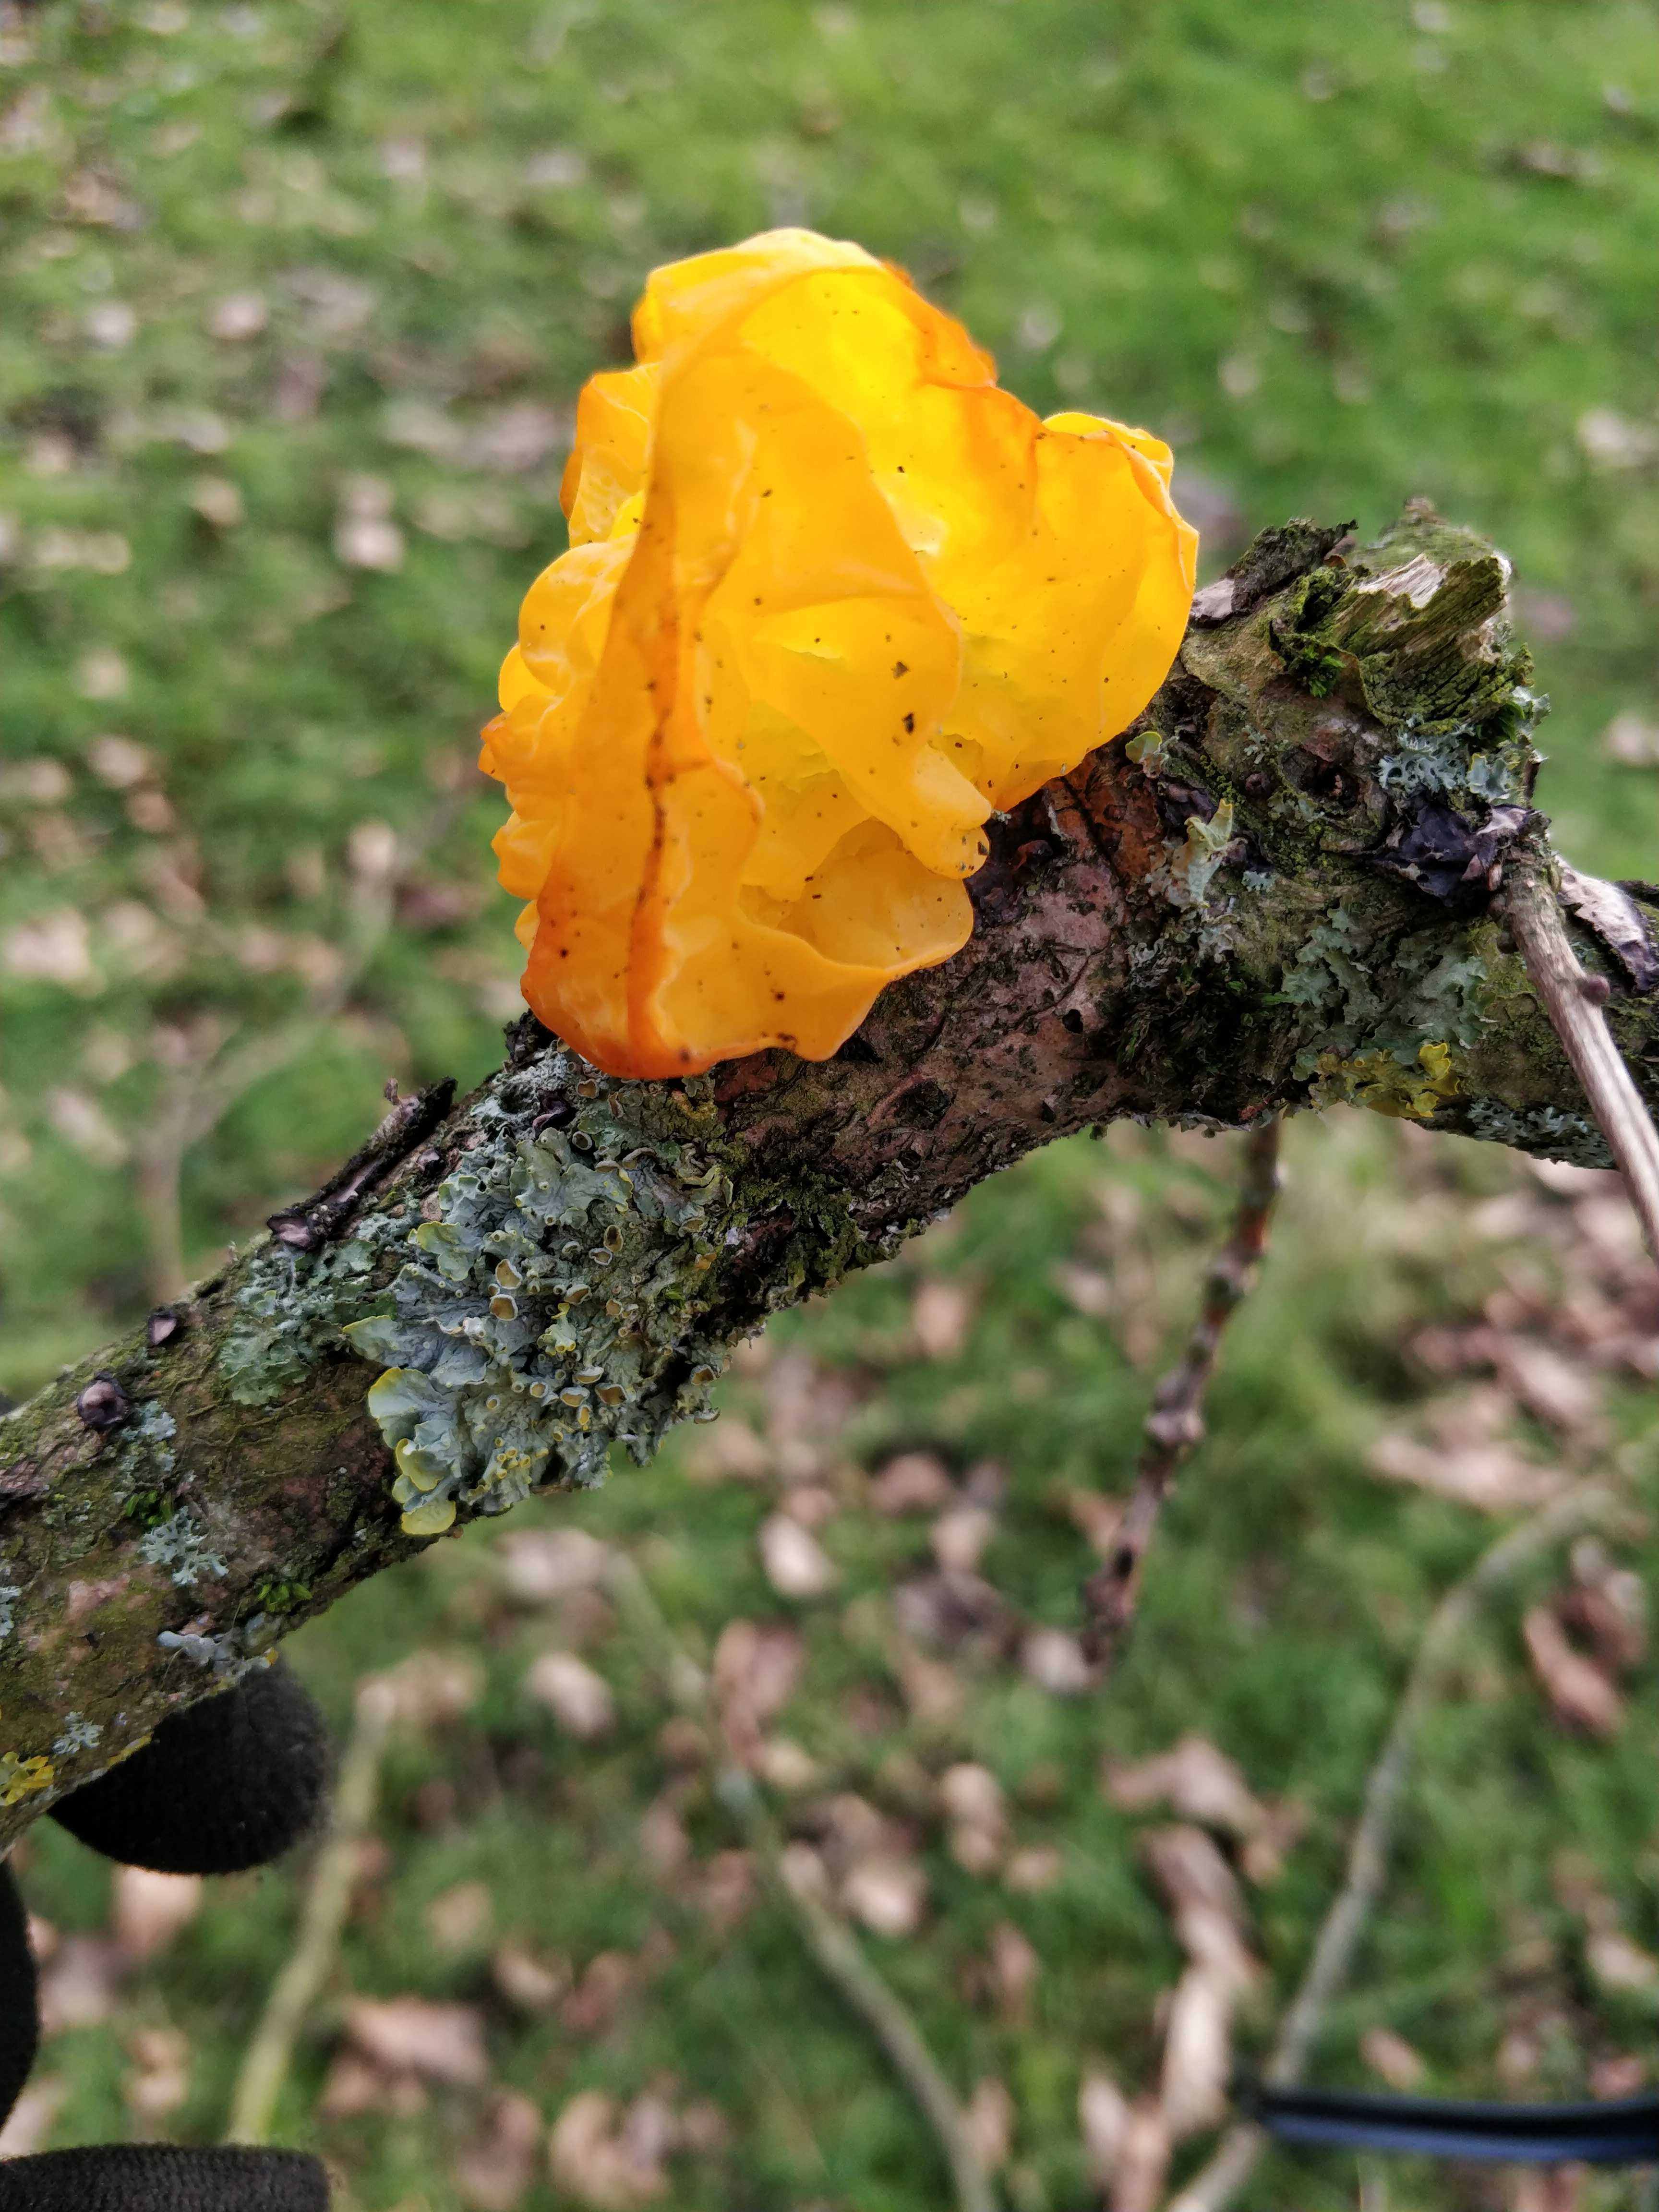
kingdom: Fungi
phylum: Basidiomycota
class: Tremellomycetes
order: Tremellales
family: Tremellaceae
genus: Tremella
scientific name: Tremella mesenterica
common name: gul bævresvamp
